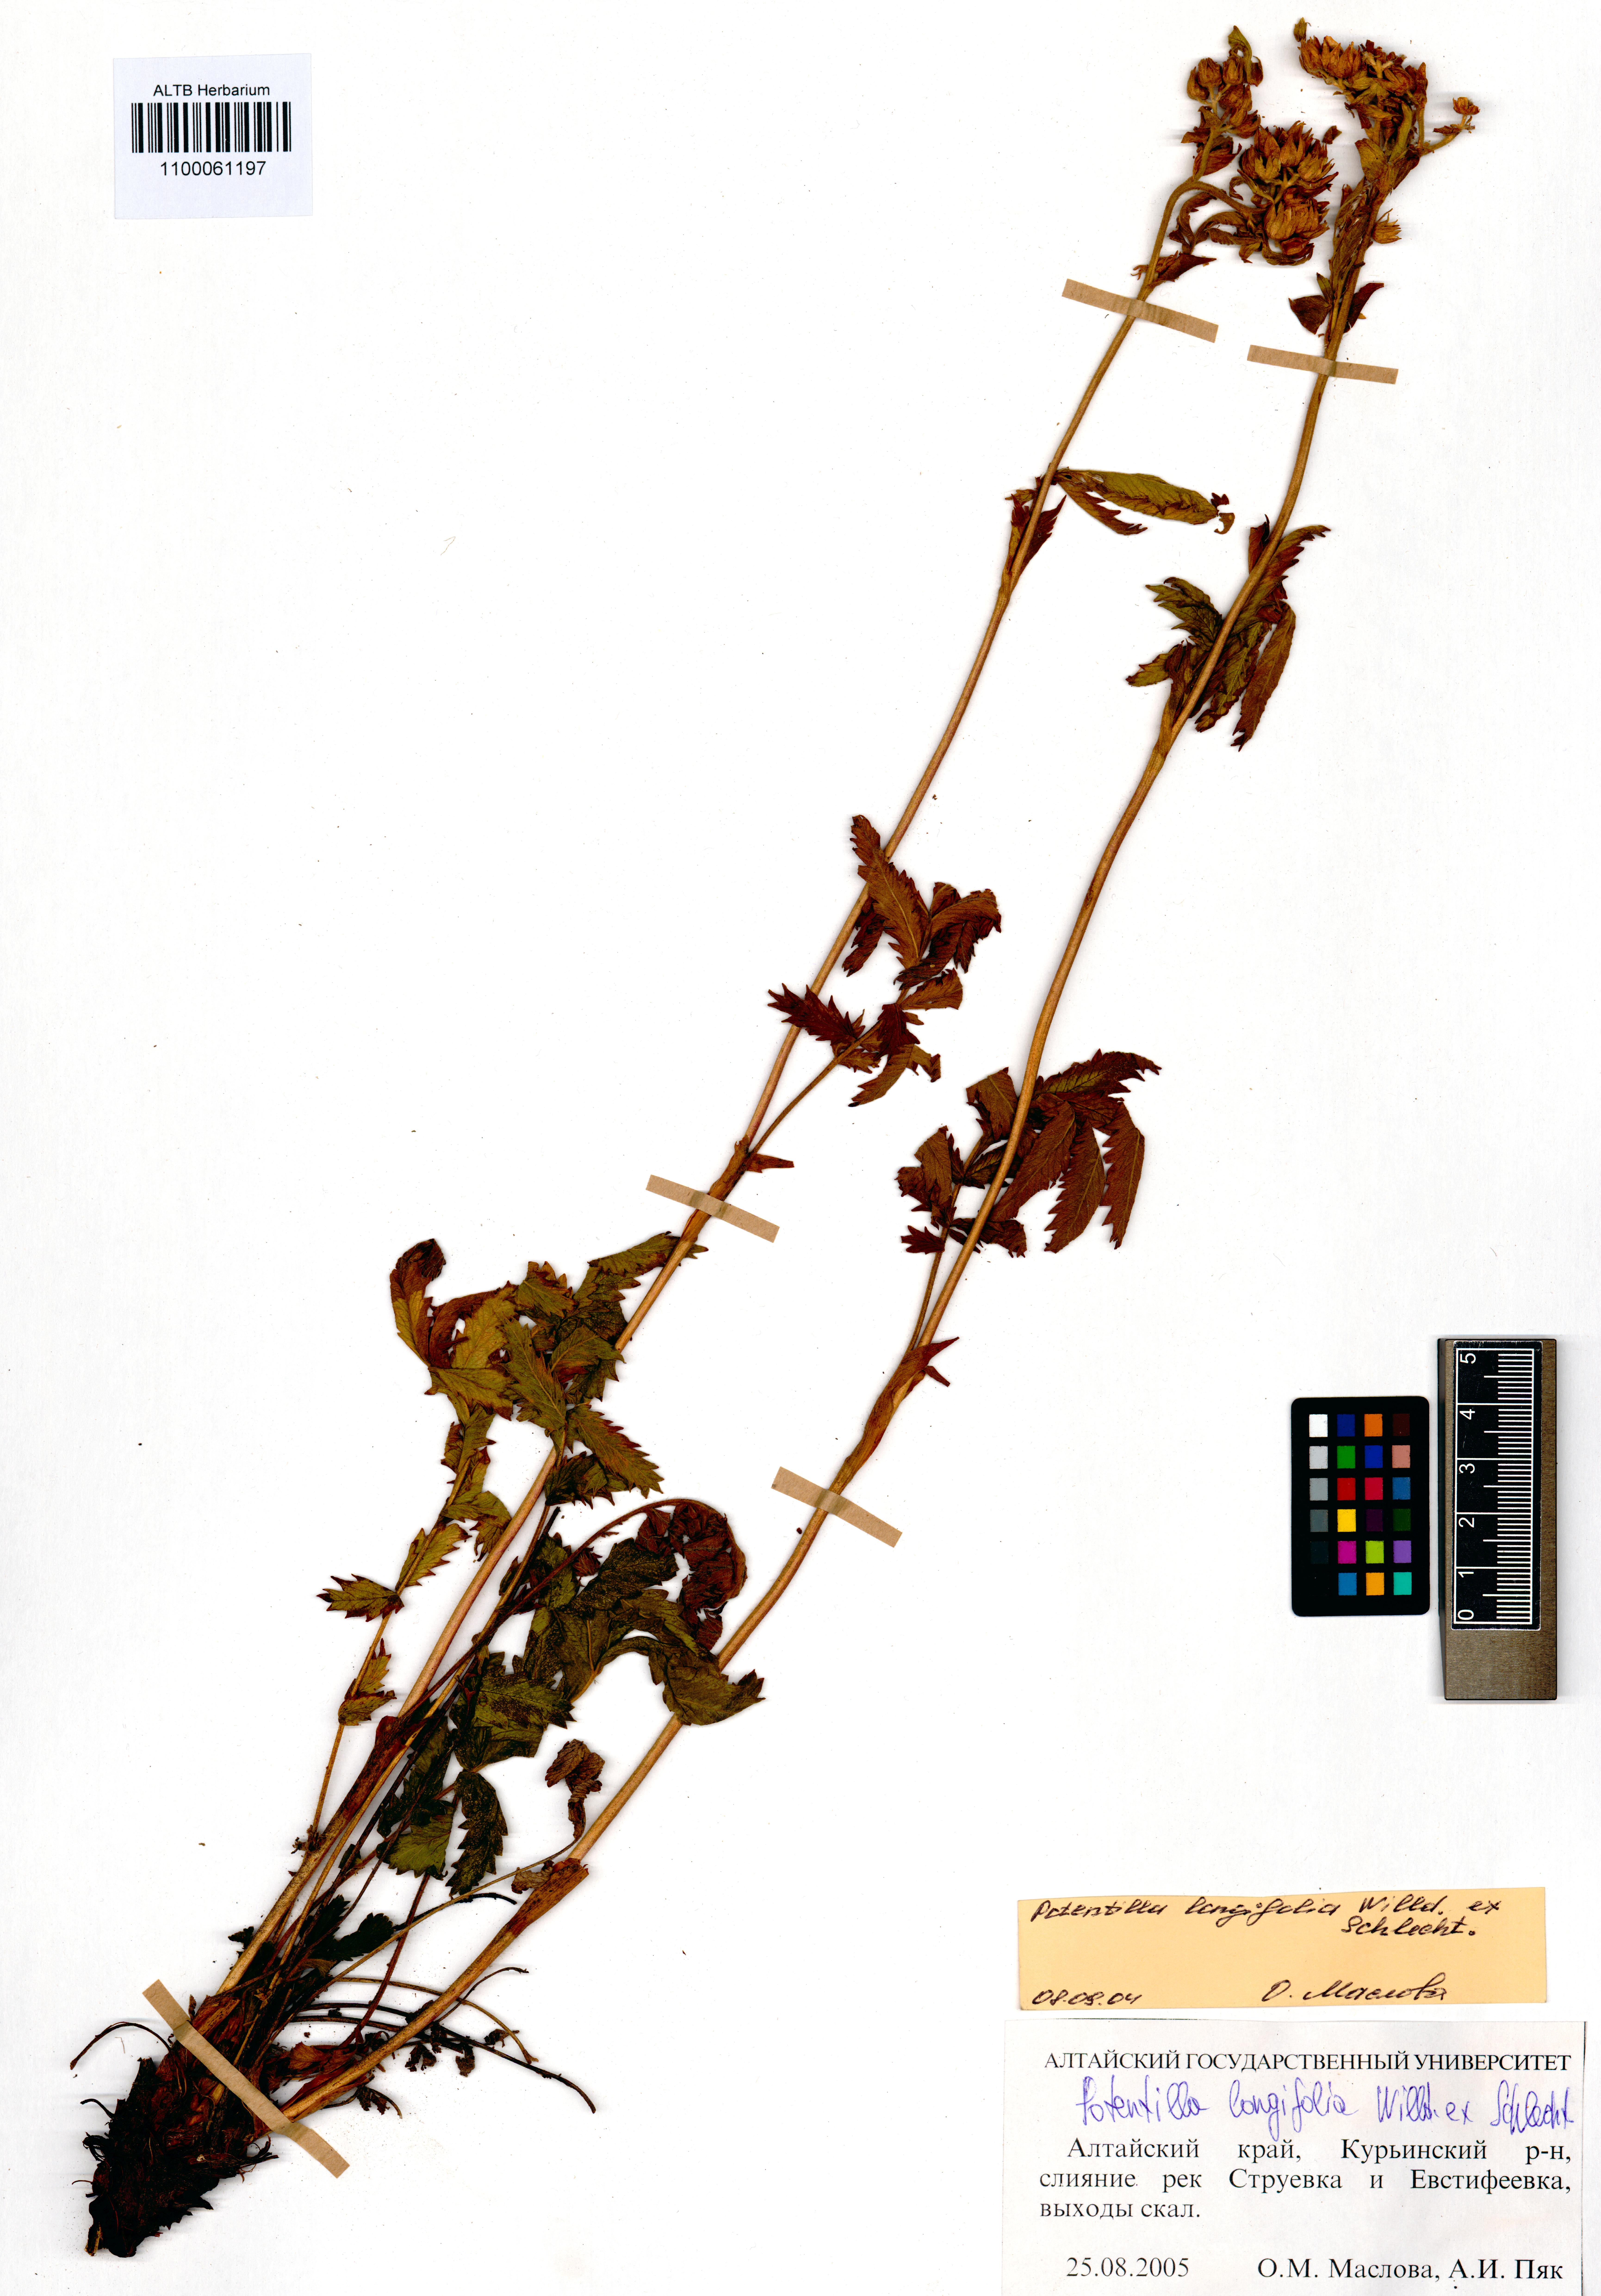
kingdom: Plantae
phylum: Tracheophyta
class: Magnoliopsida
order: Rosales
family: Rosaceae
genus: Potentilla
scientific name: Potentilla longifolia
